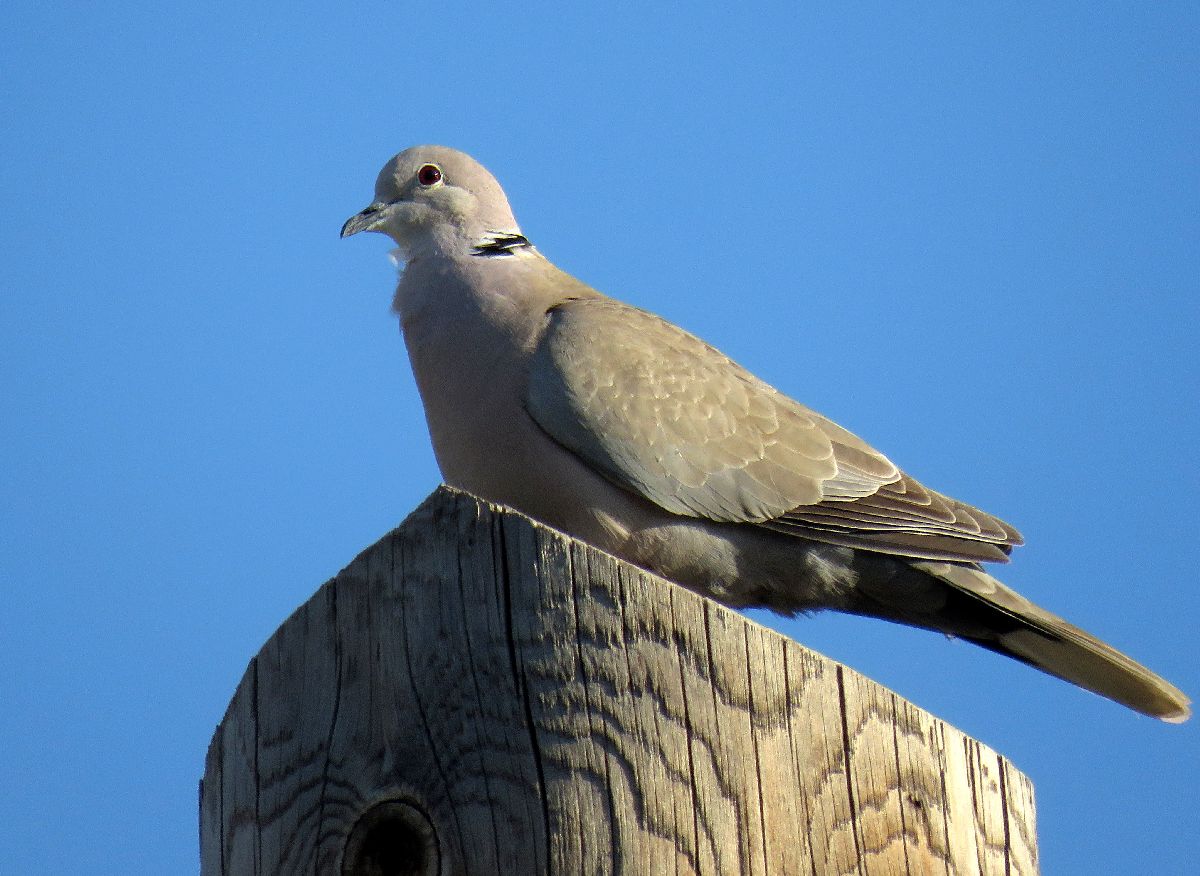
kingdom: Animalia
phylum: Chordata
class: Aves
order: Columbiformes
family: Columbidae
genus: Streptopelia
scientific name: Streptopelia decaocto
